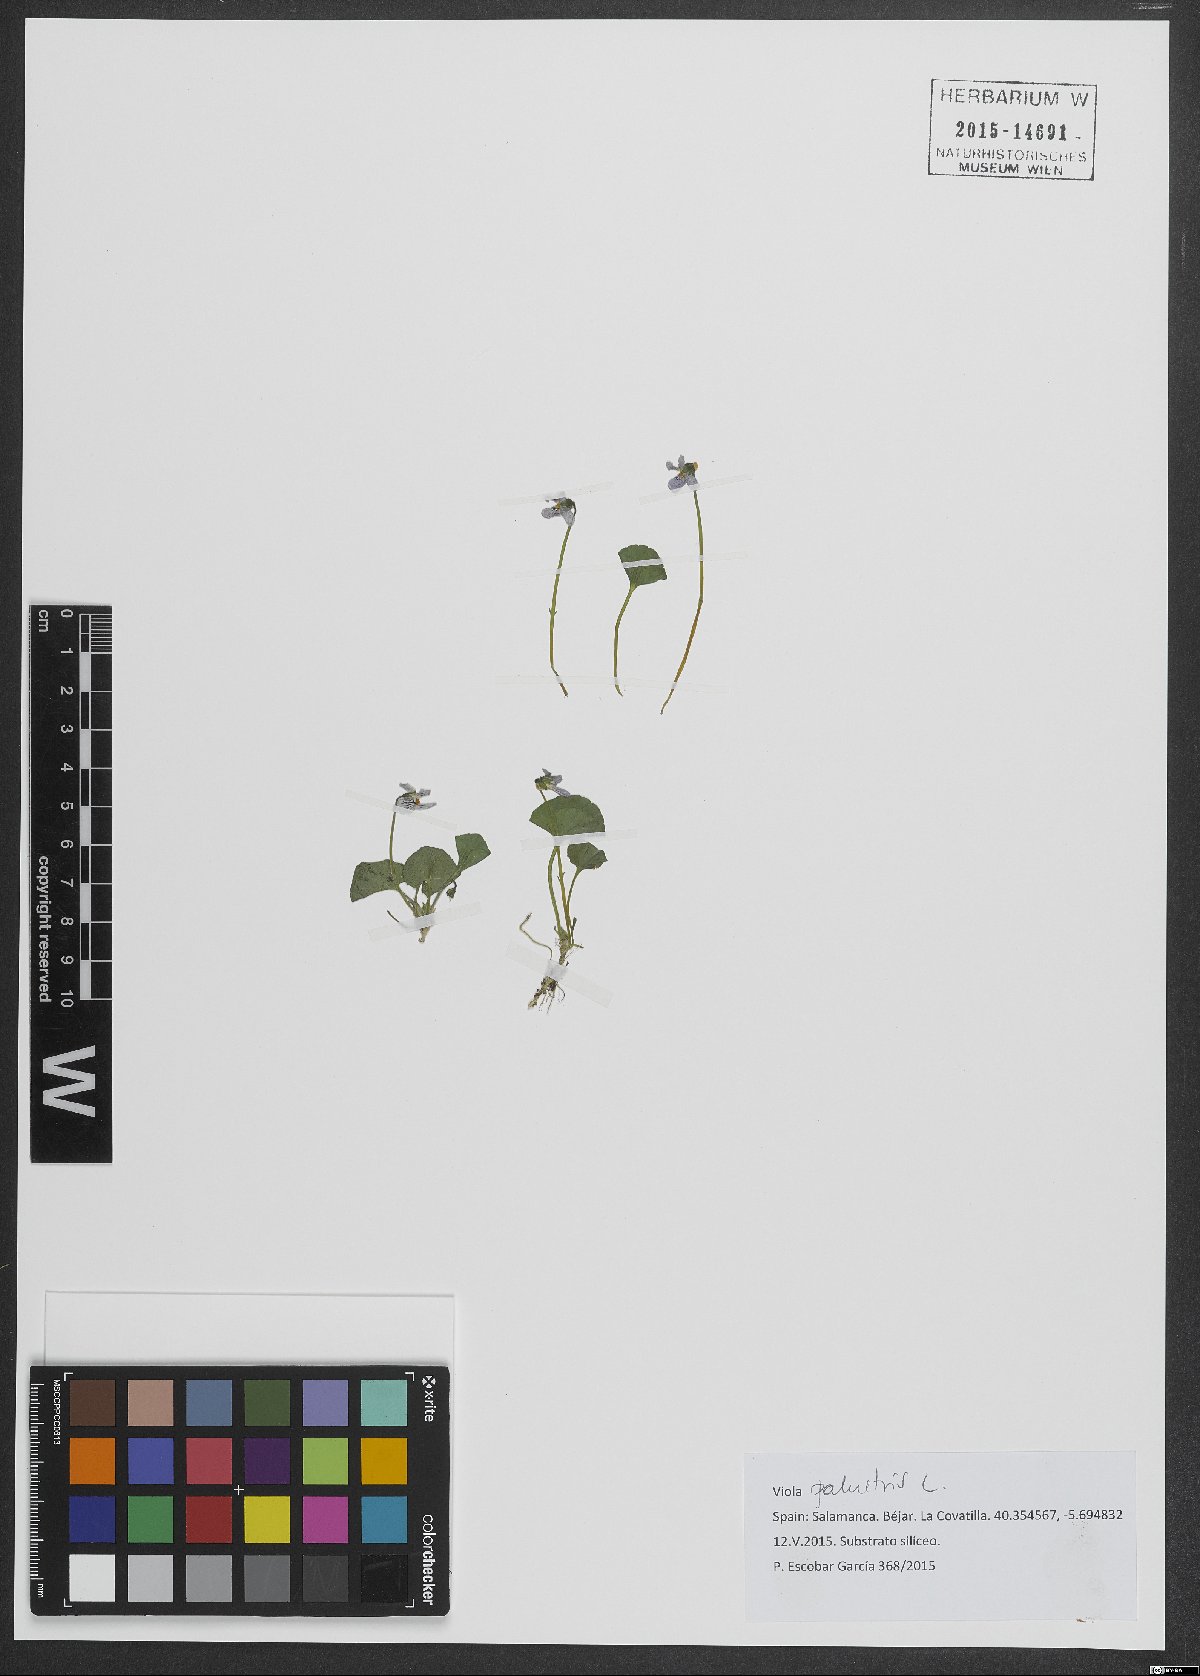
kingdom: Plantae
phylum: Tracheophyta
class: Magnoliopsida
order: Malpighiales
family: Violaceae
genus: Viola
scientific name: Viola palustris
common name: Marsh violet
